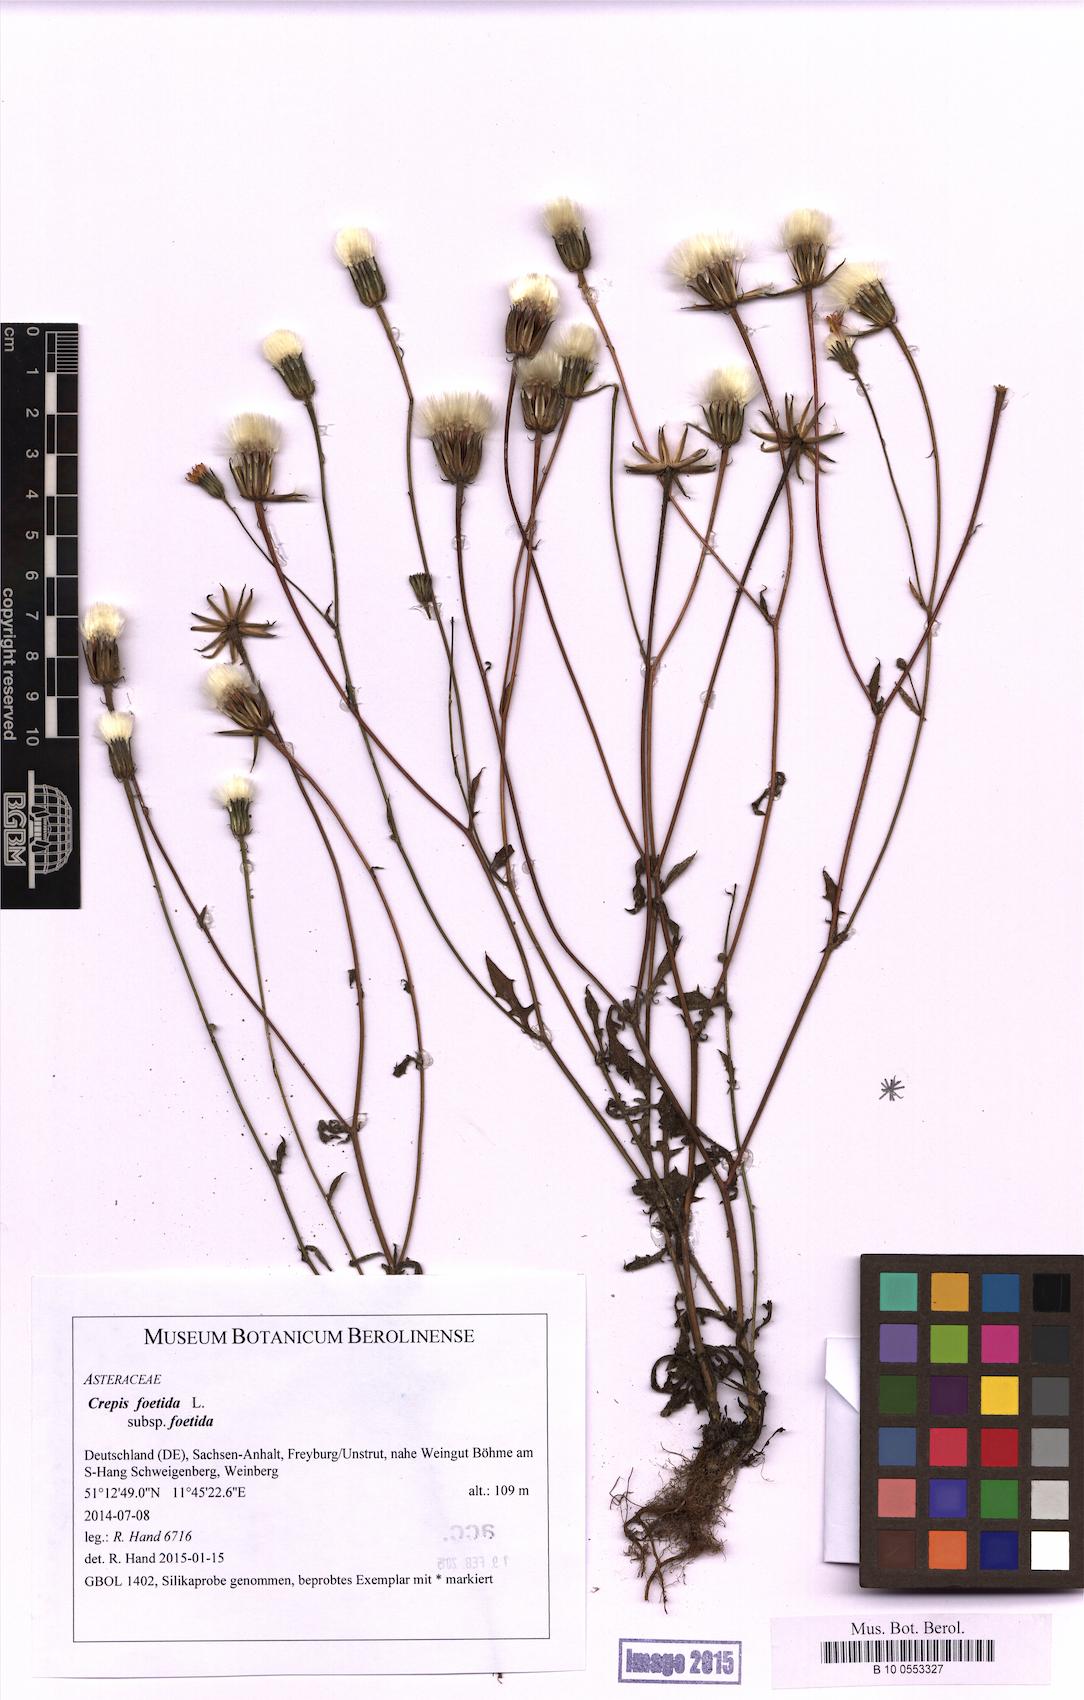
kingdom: Plantae
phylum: Tracheophyta
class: Magnoliopsida
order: Asterales
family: Asteraceae
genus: Crepis
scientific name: Crepis foetida
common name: Stinking hawk's-beard
